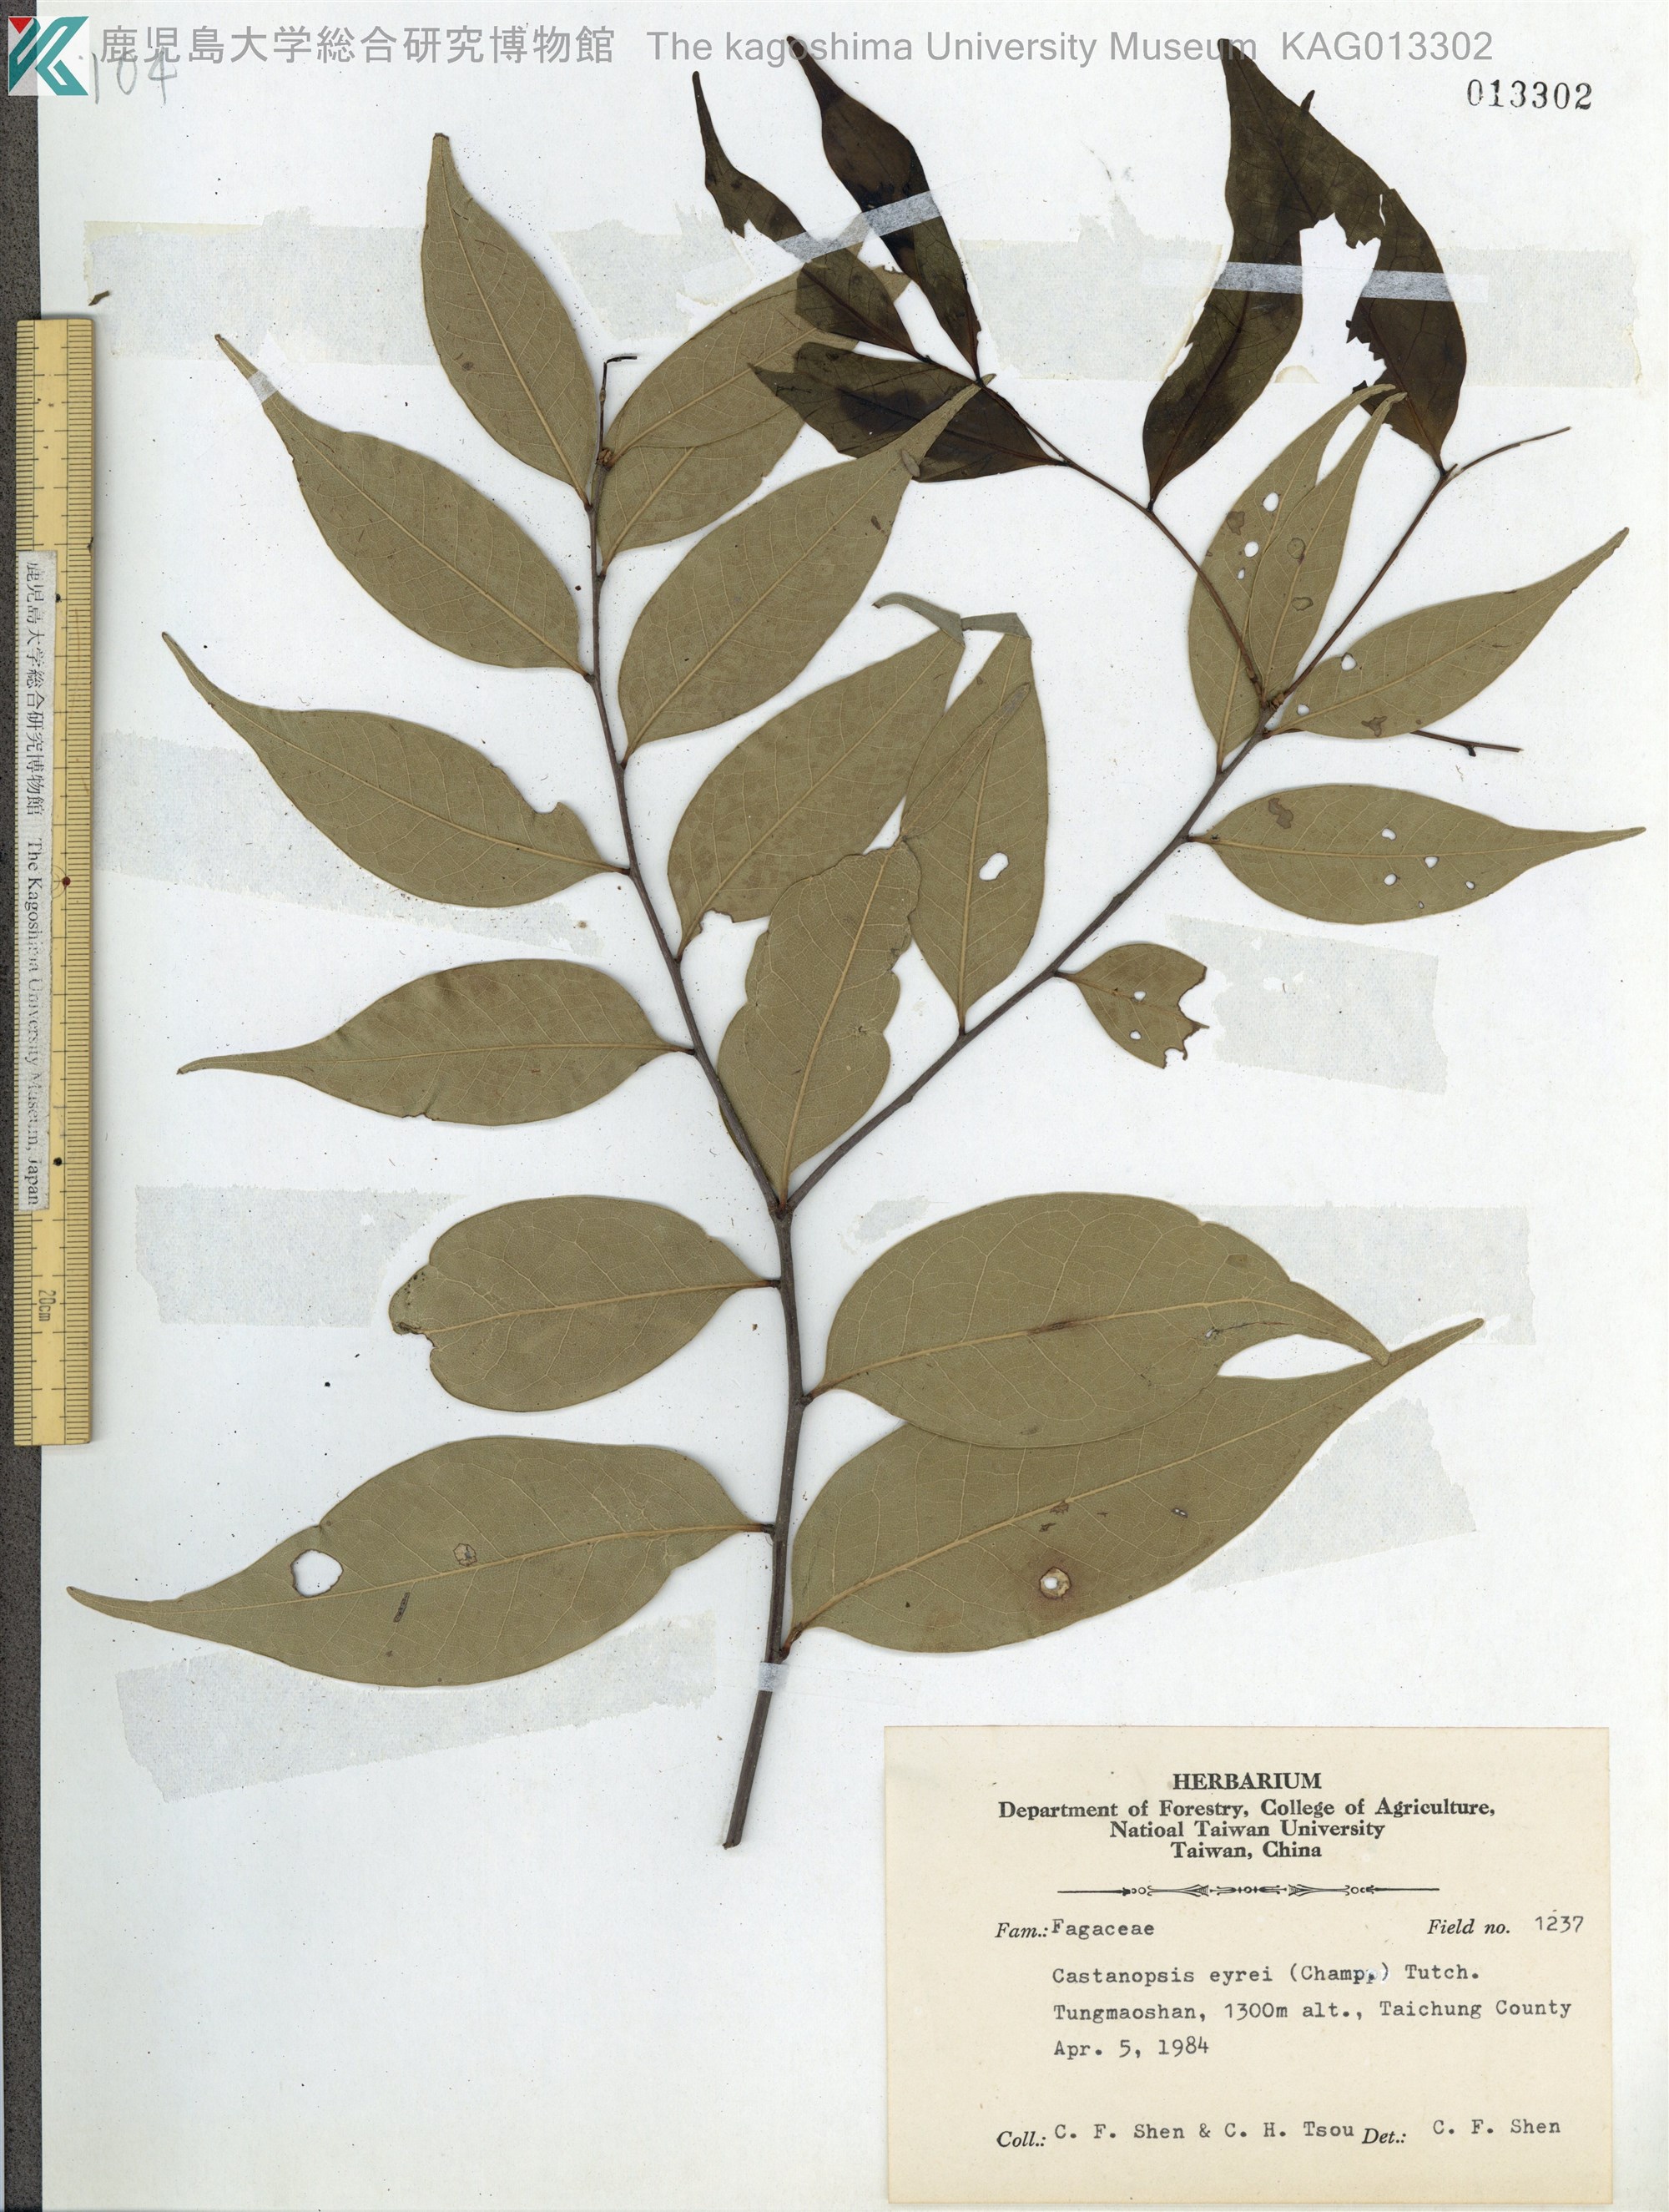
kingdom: Plantae
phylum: Tracheophyta
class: Magnoliopsida
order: Fagales
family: Fagaceae
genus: Castanopsis
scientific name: Castanopsis eyrei
